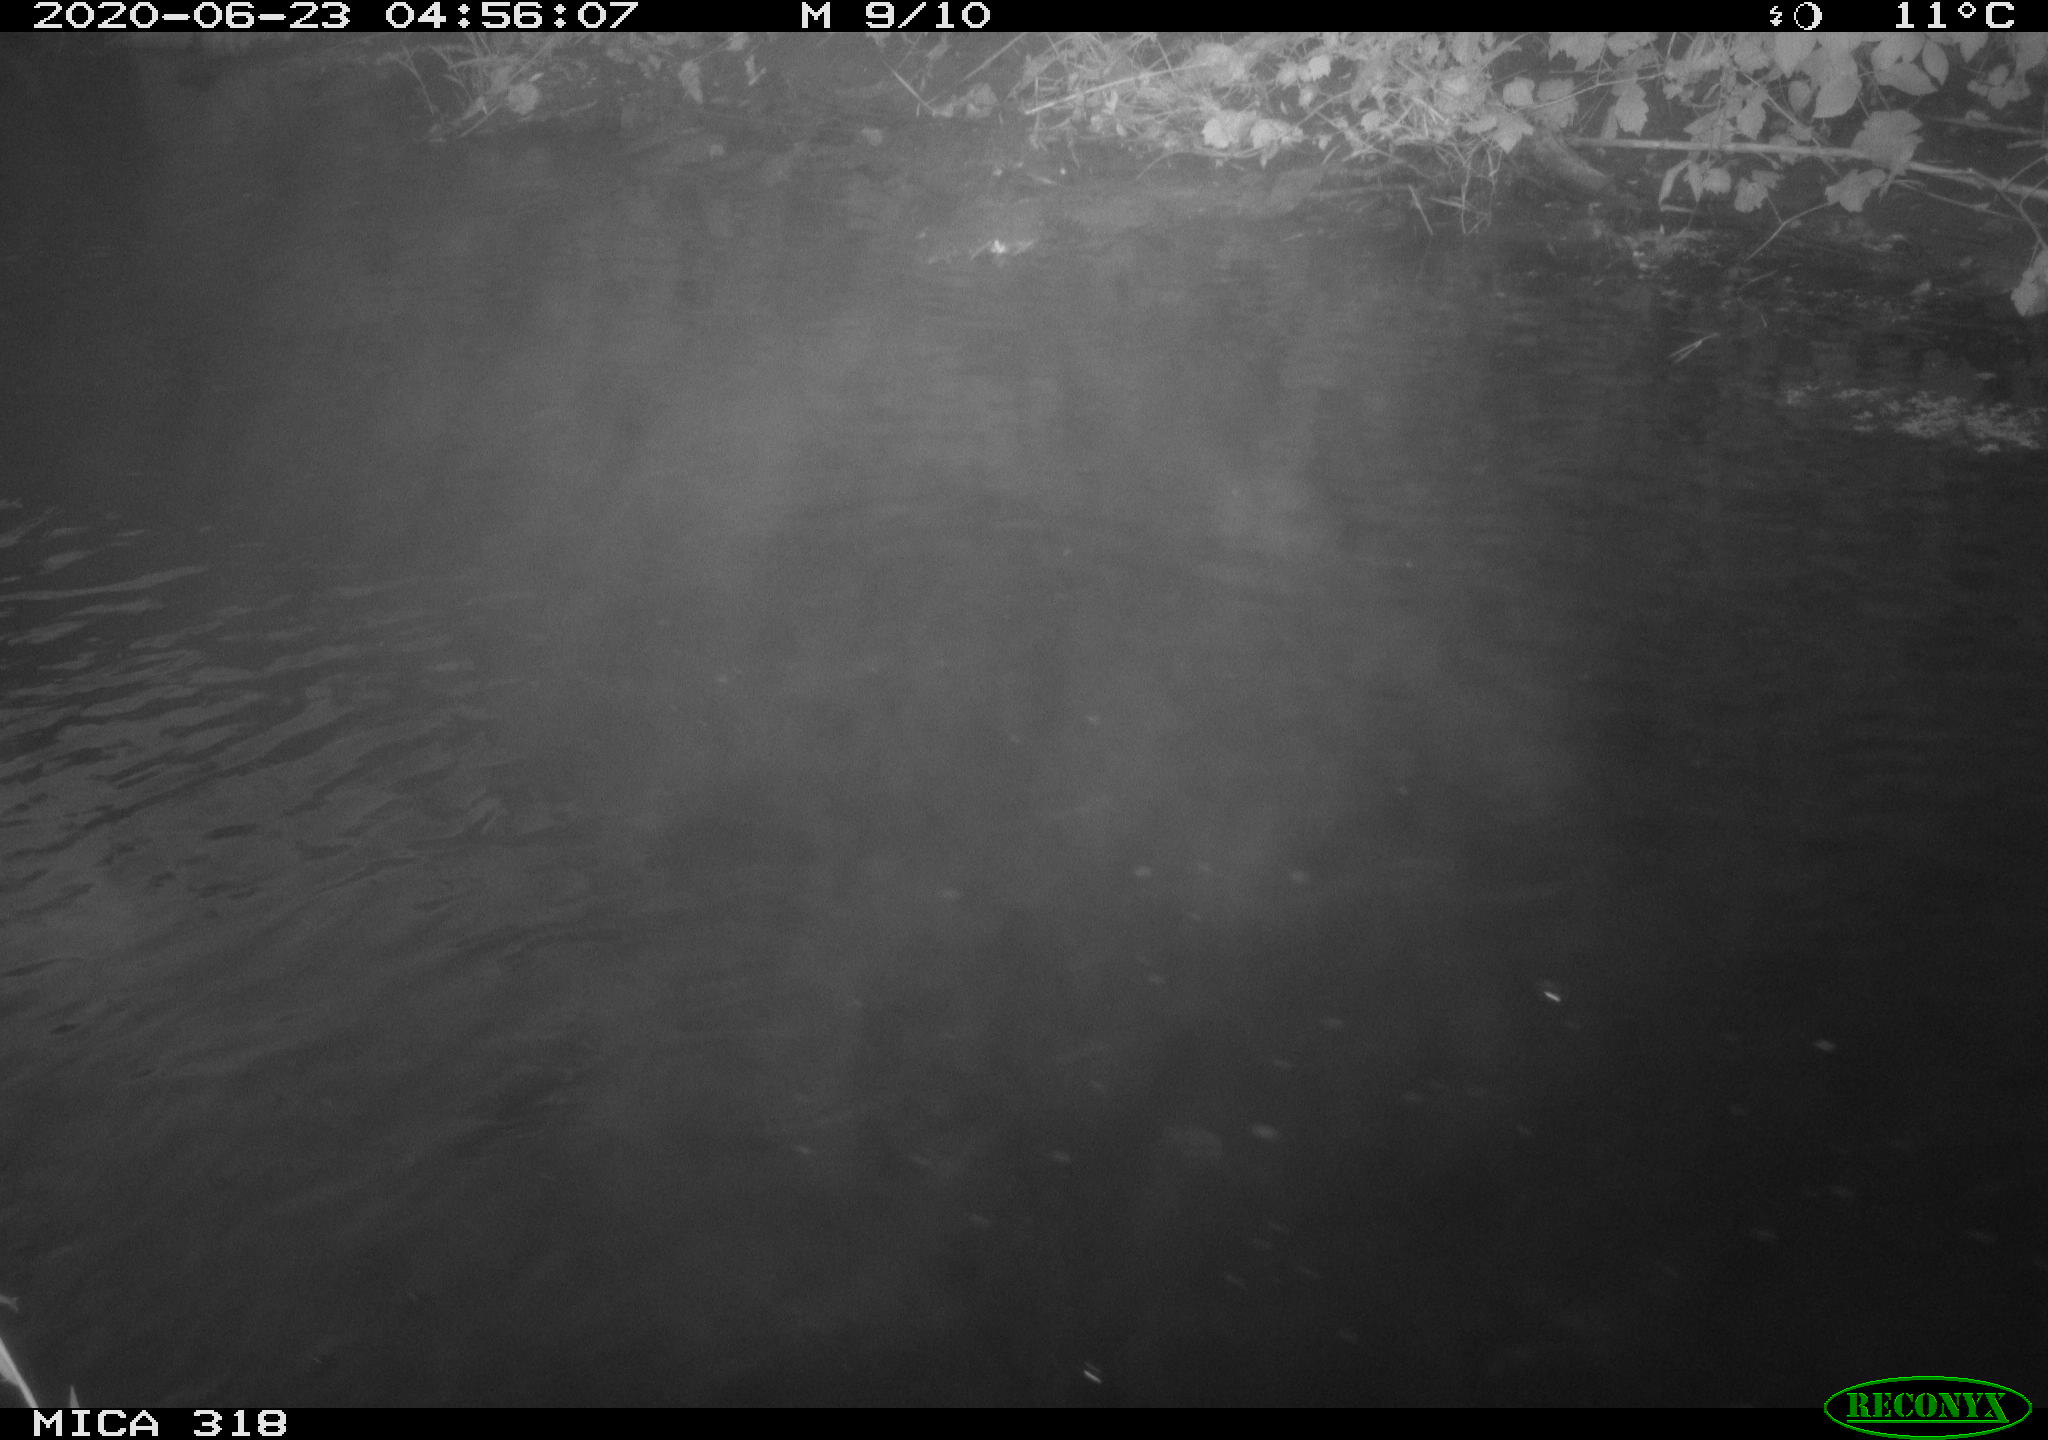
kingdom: Animalia
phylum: Chordata
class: Aves
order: Anseriformes
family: Anatidae
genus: Anas
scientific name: Anas platyrhynchos
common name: Mallard
